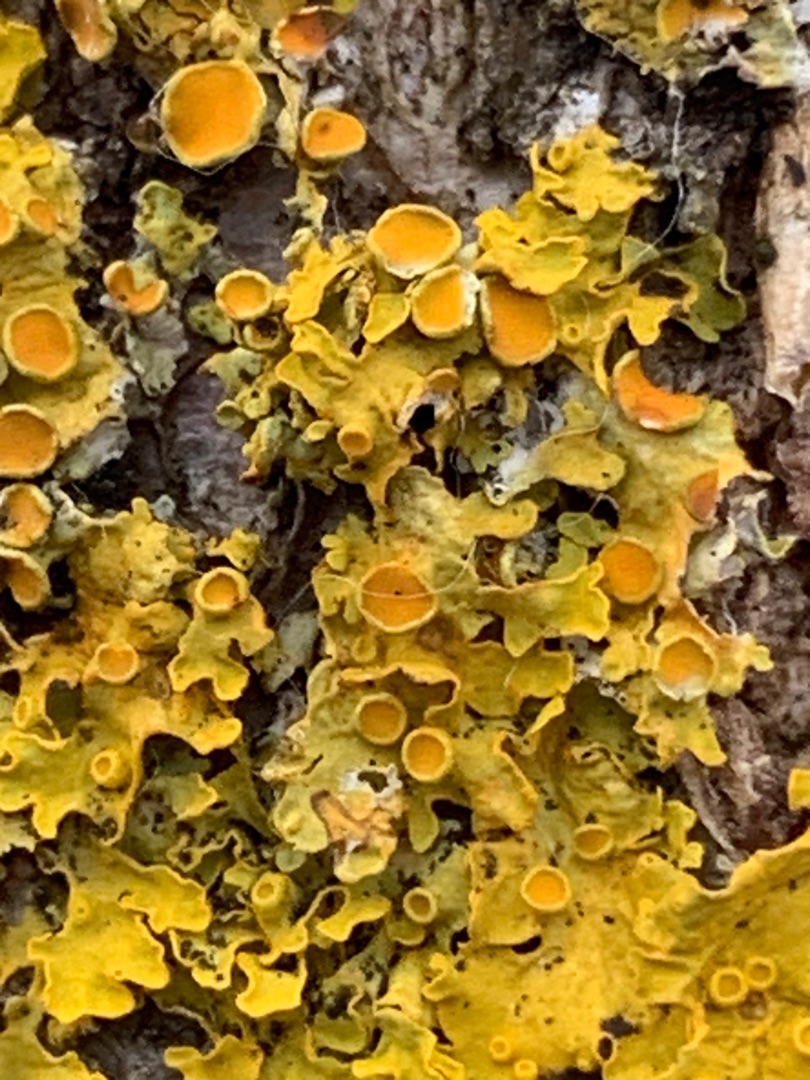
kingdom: Fungi
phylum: Ascomycota
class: Lecanoromycetes
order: Teloschistales
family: Teloschistaceae
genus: Xanthoria
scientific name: Xanthoria parietina
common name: Almindelig væggelav
